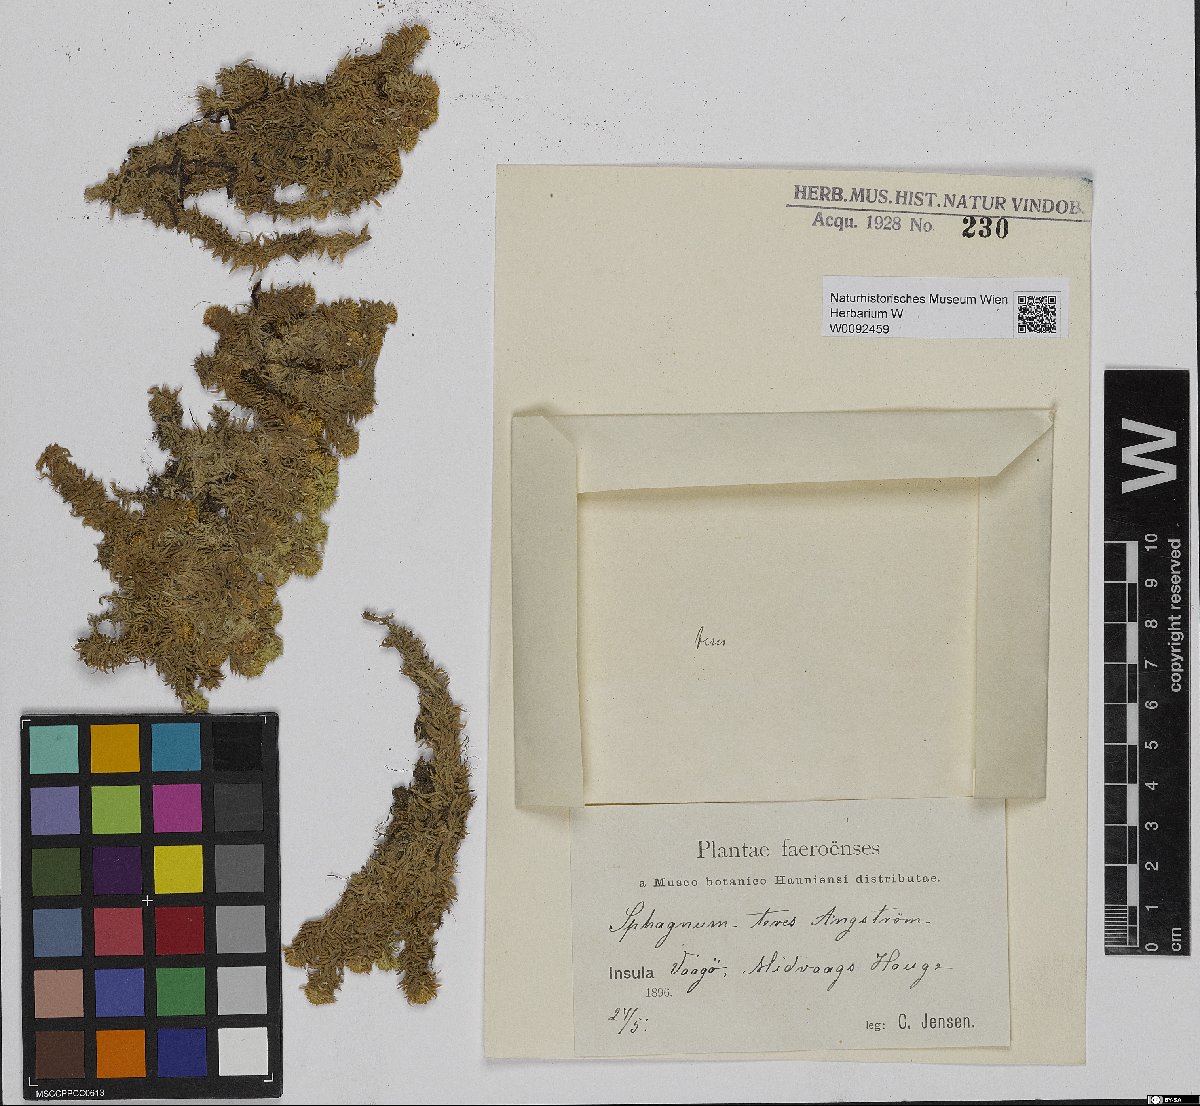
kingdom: Plantae
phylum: Bryophyta
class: Sphagnopsida
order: Sphagnales
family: Sphagnaceae
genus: Sphagnum
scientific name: Sphagnum teres
